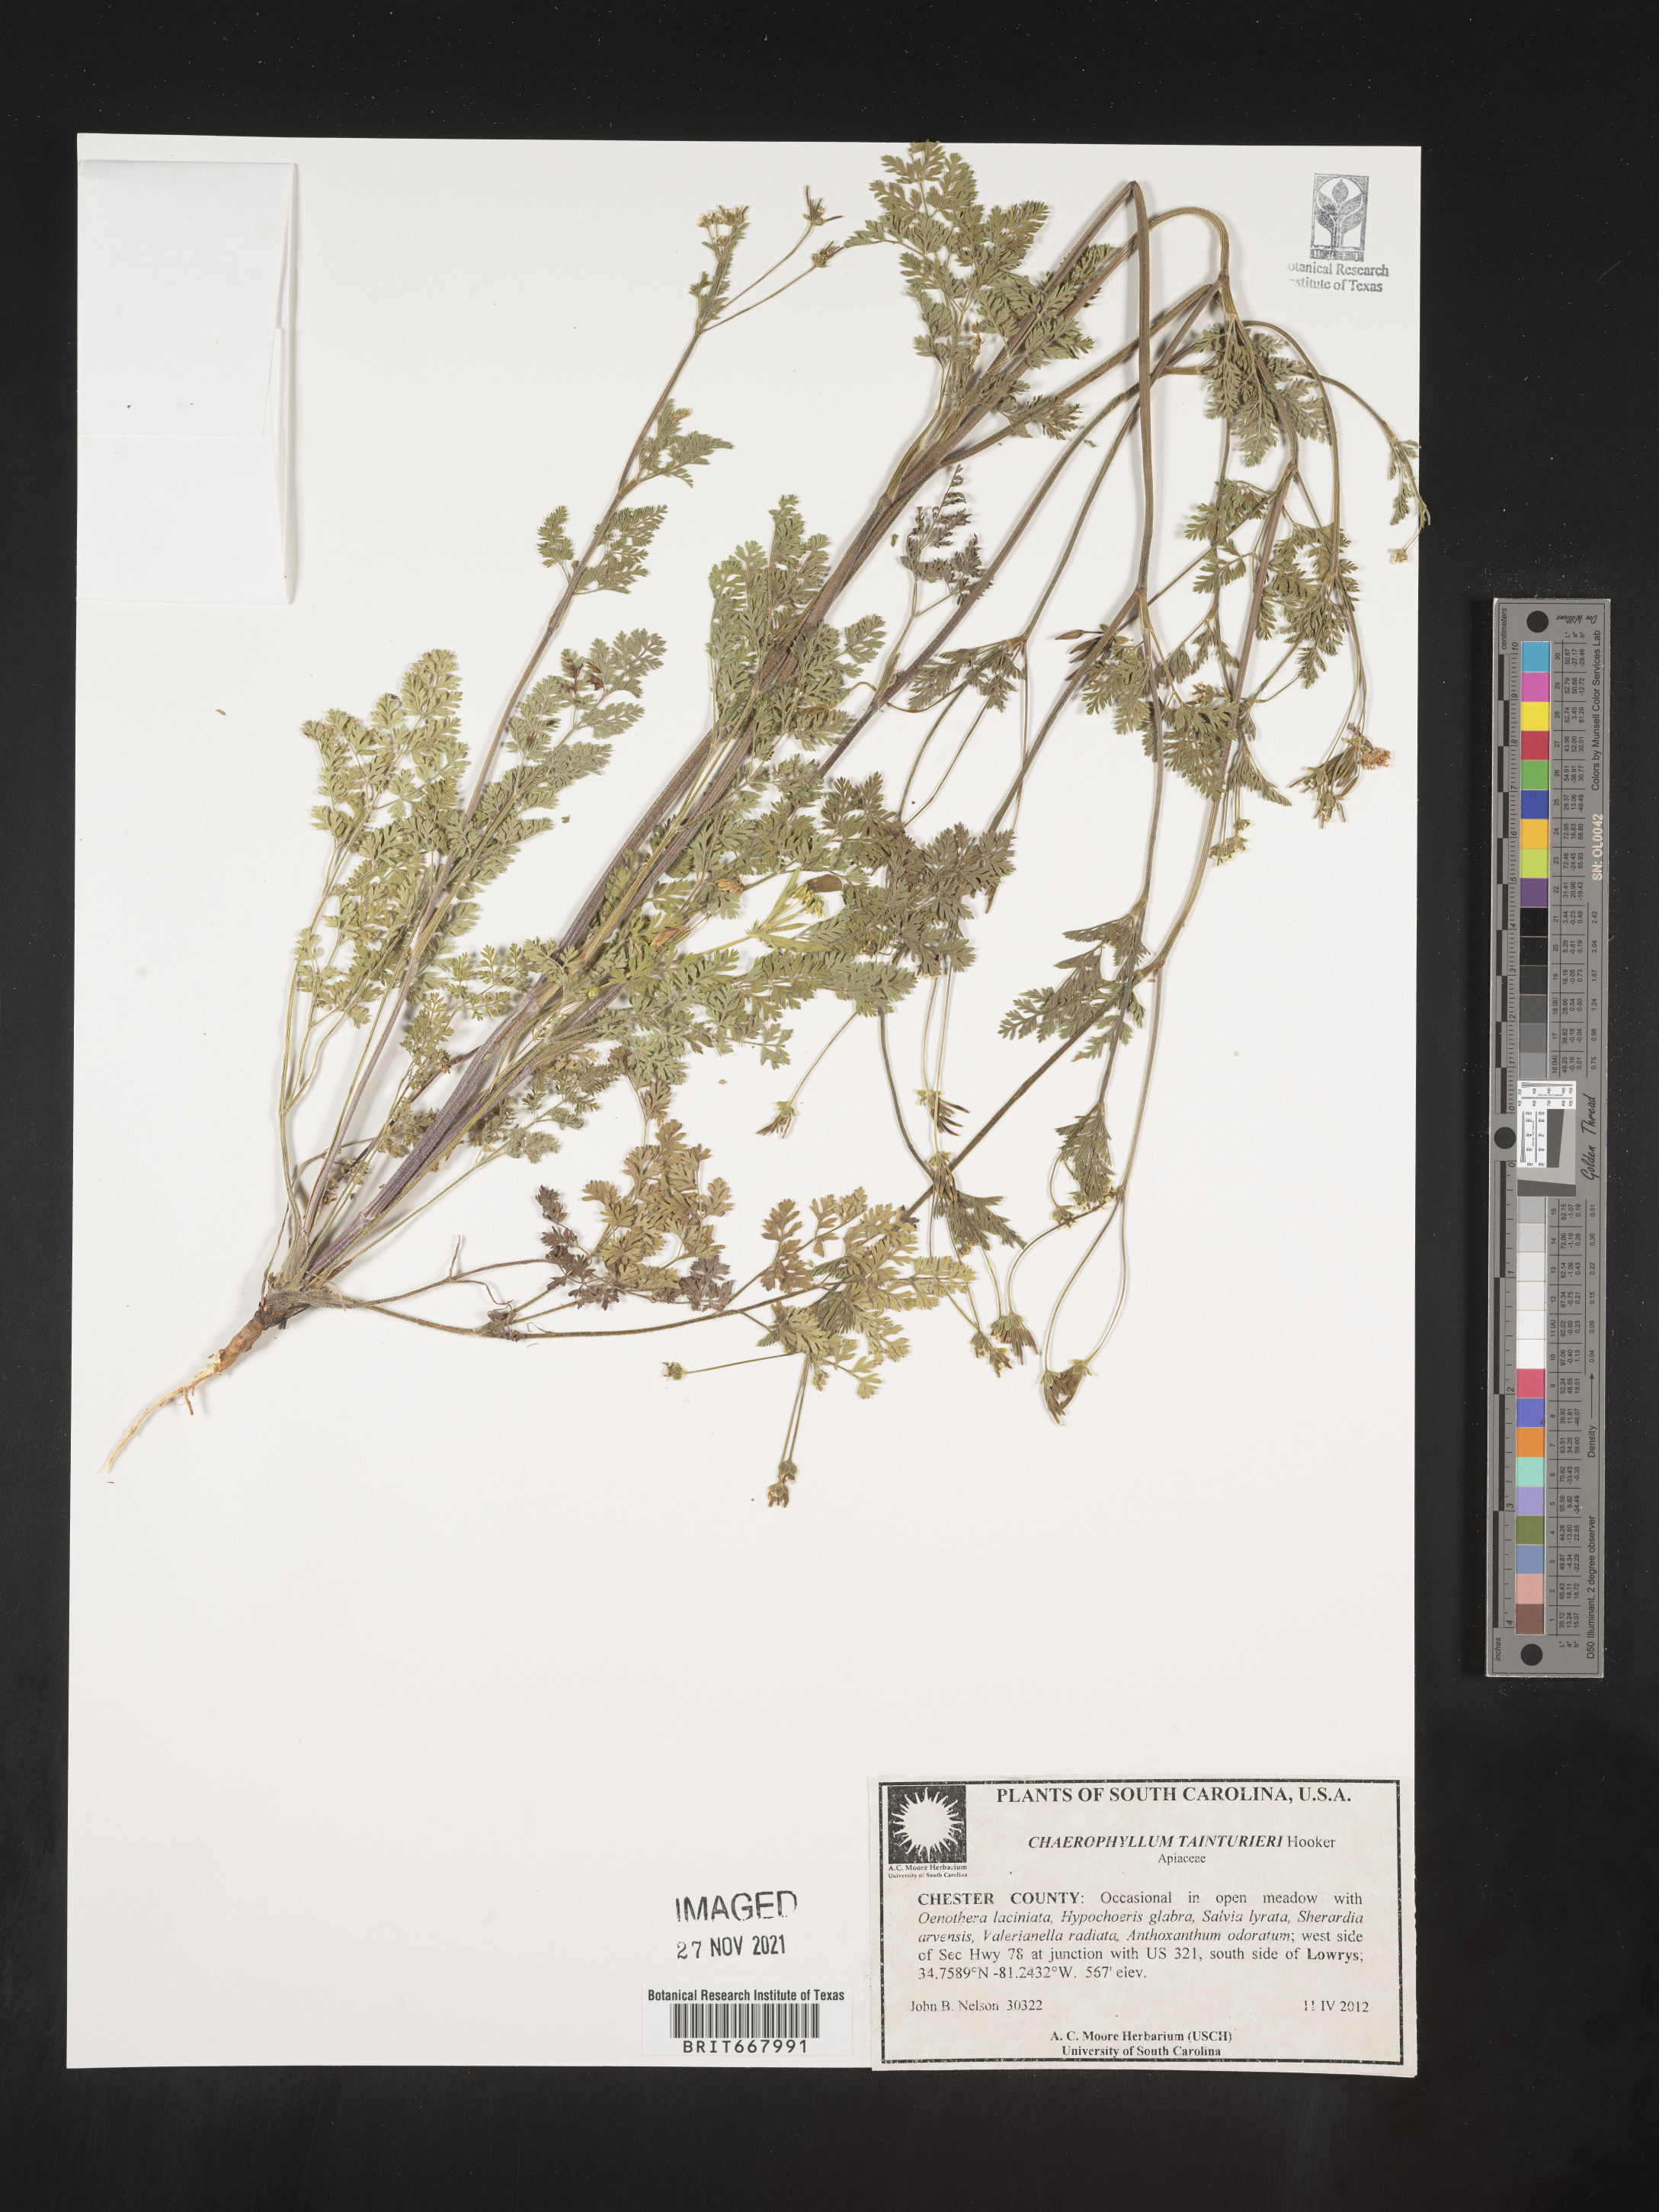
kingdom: Plantae
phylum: Tracheophyta
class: Magnoliopsida
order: Apiales
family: Apiaceae
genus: Chaerophyllum
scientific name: Chaerophyllum tainturieri
